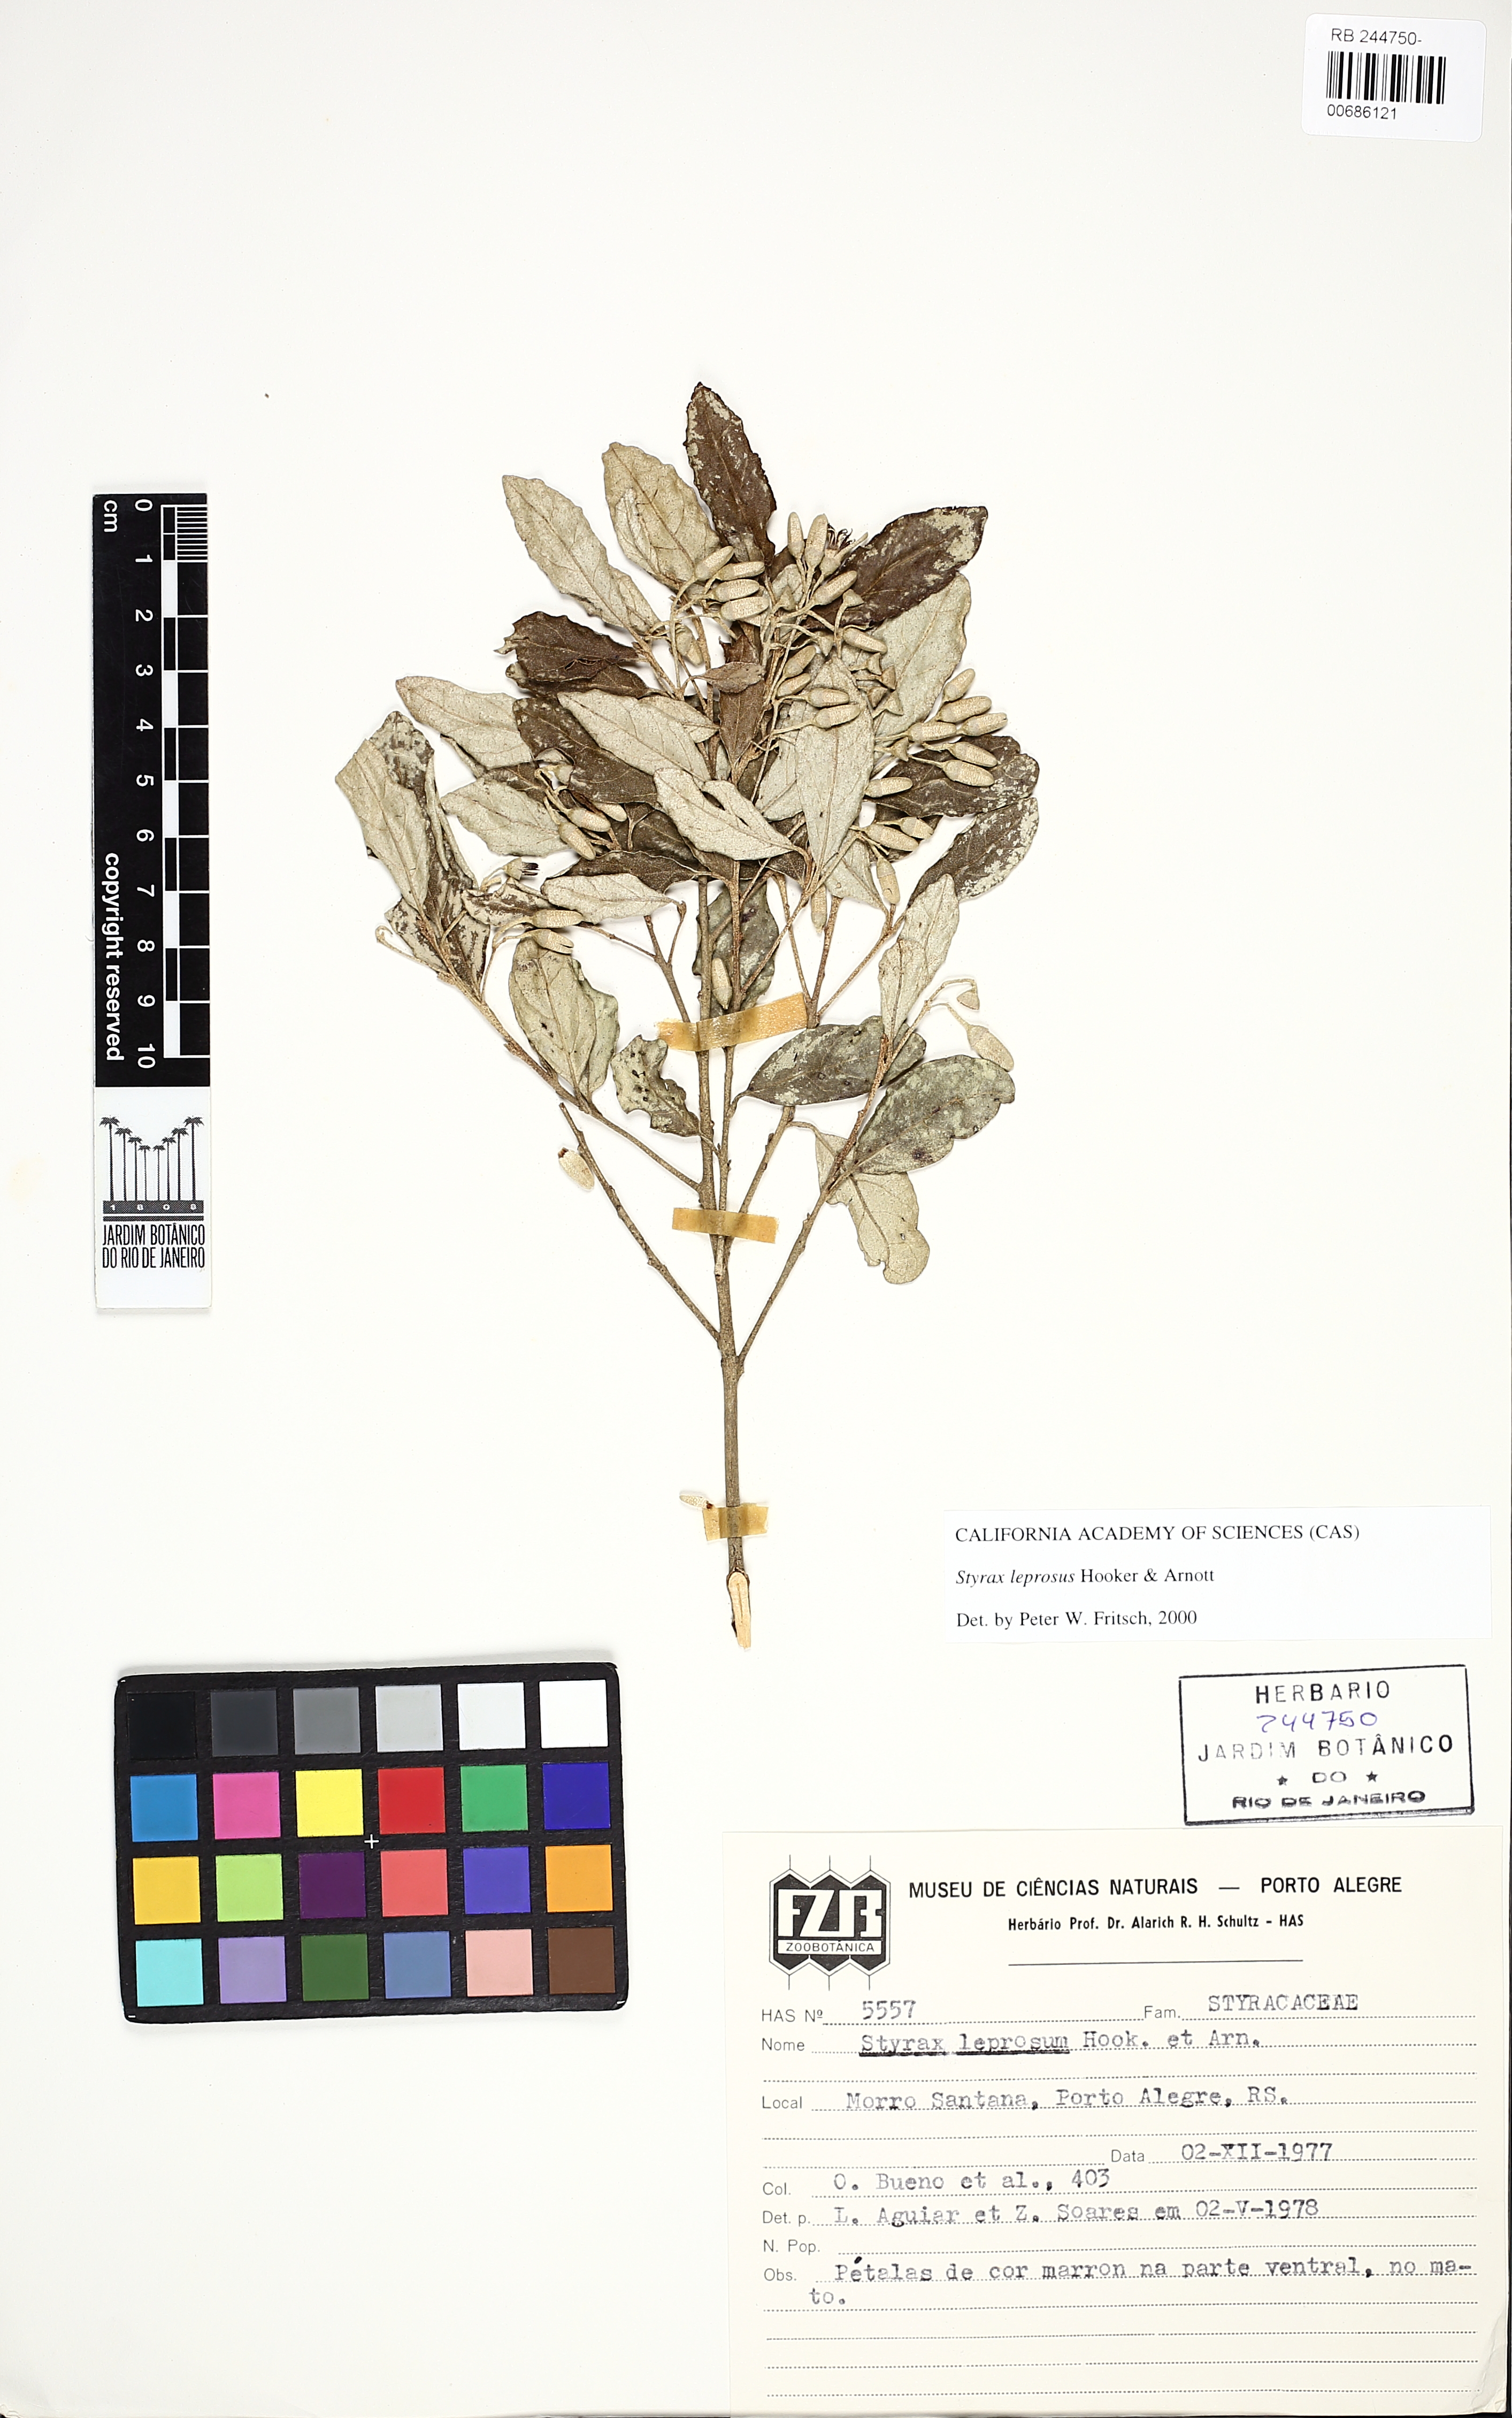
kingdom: Plantae
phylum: Tracheophyta
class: Magnoliopsida
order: Ericales
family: Styracaceae
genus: Styrax
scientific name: Styrax leprosus
